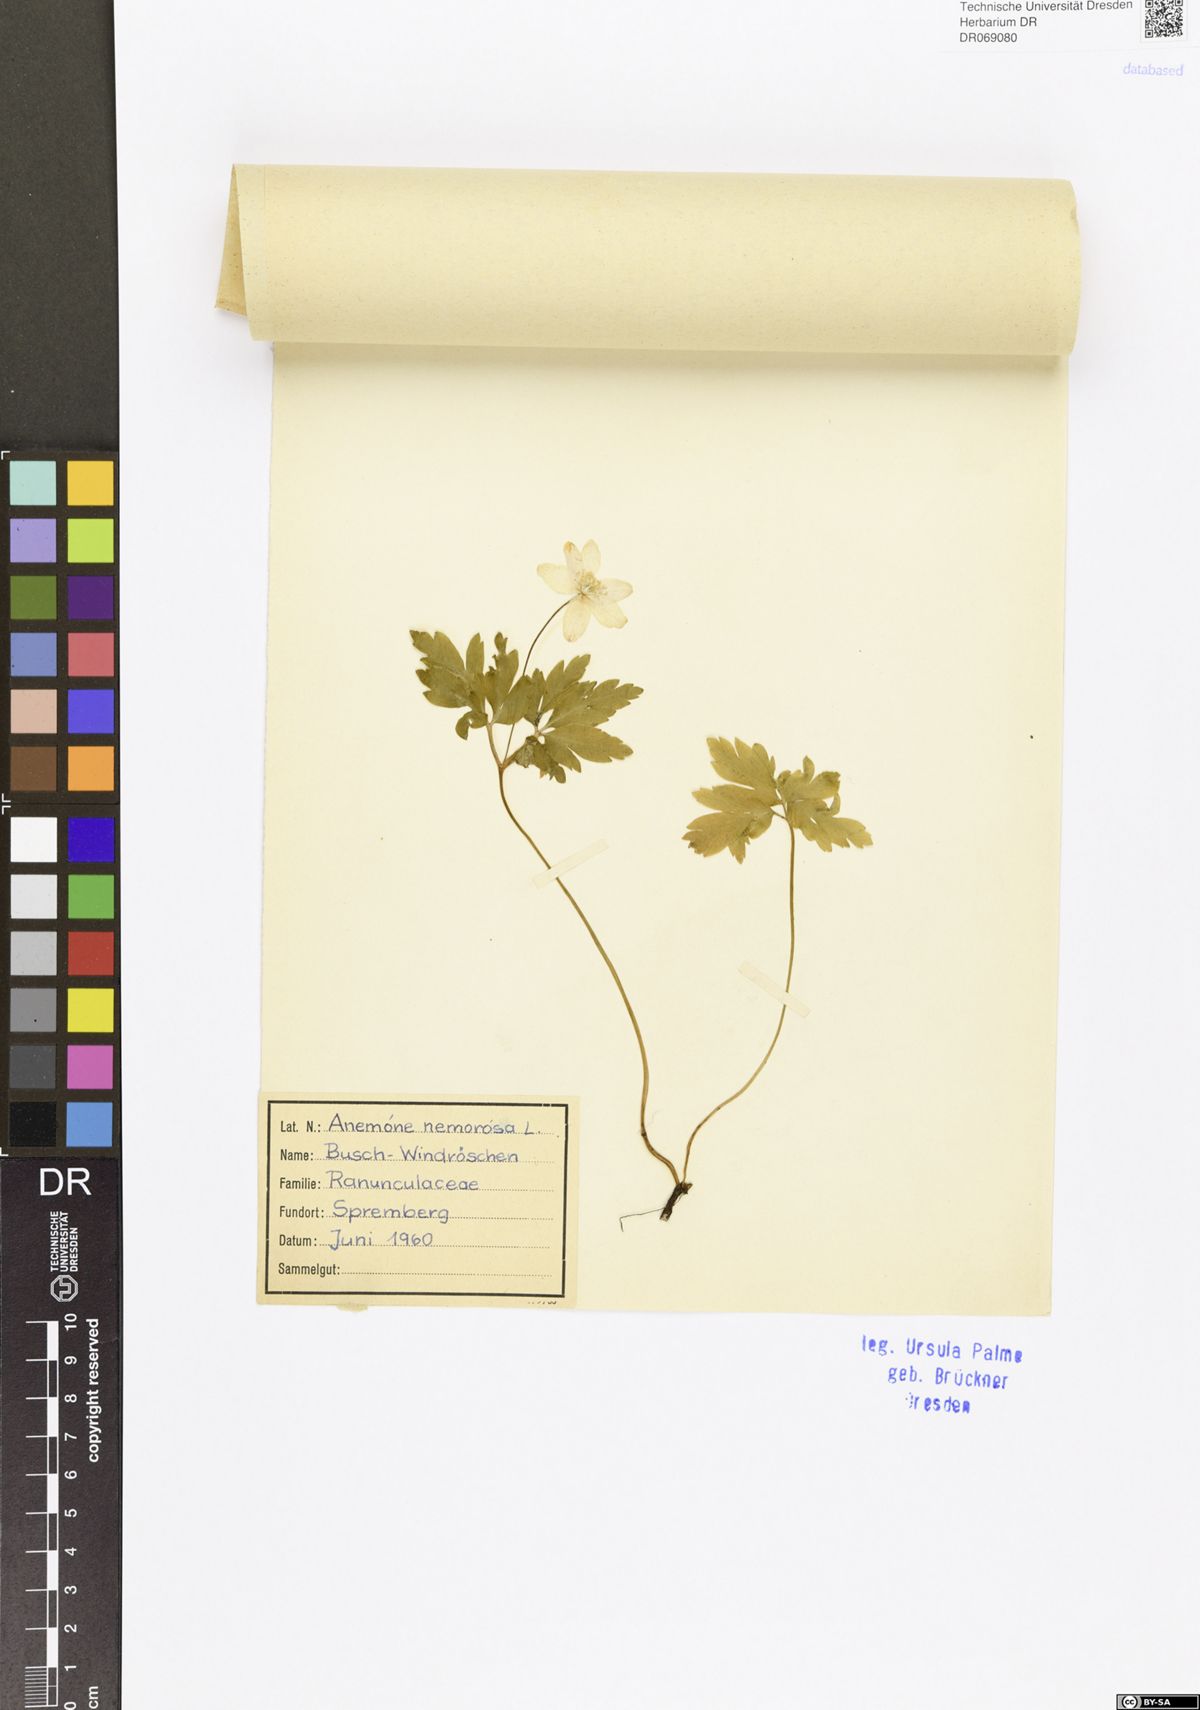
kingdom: Plantae
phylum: Tracheophyta
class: Magnoliopsida
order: Ranunculales
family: Ranunculaceae
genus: Anemone
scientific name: Anemone nemorosa
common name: Wood anemone
